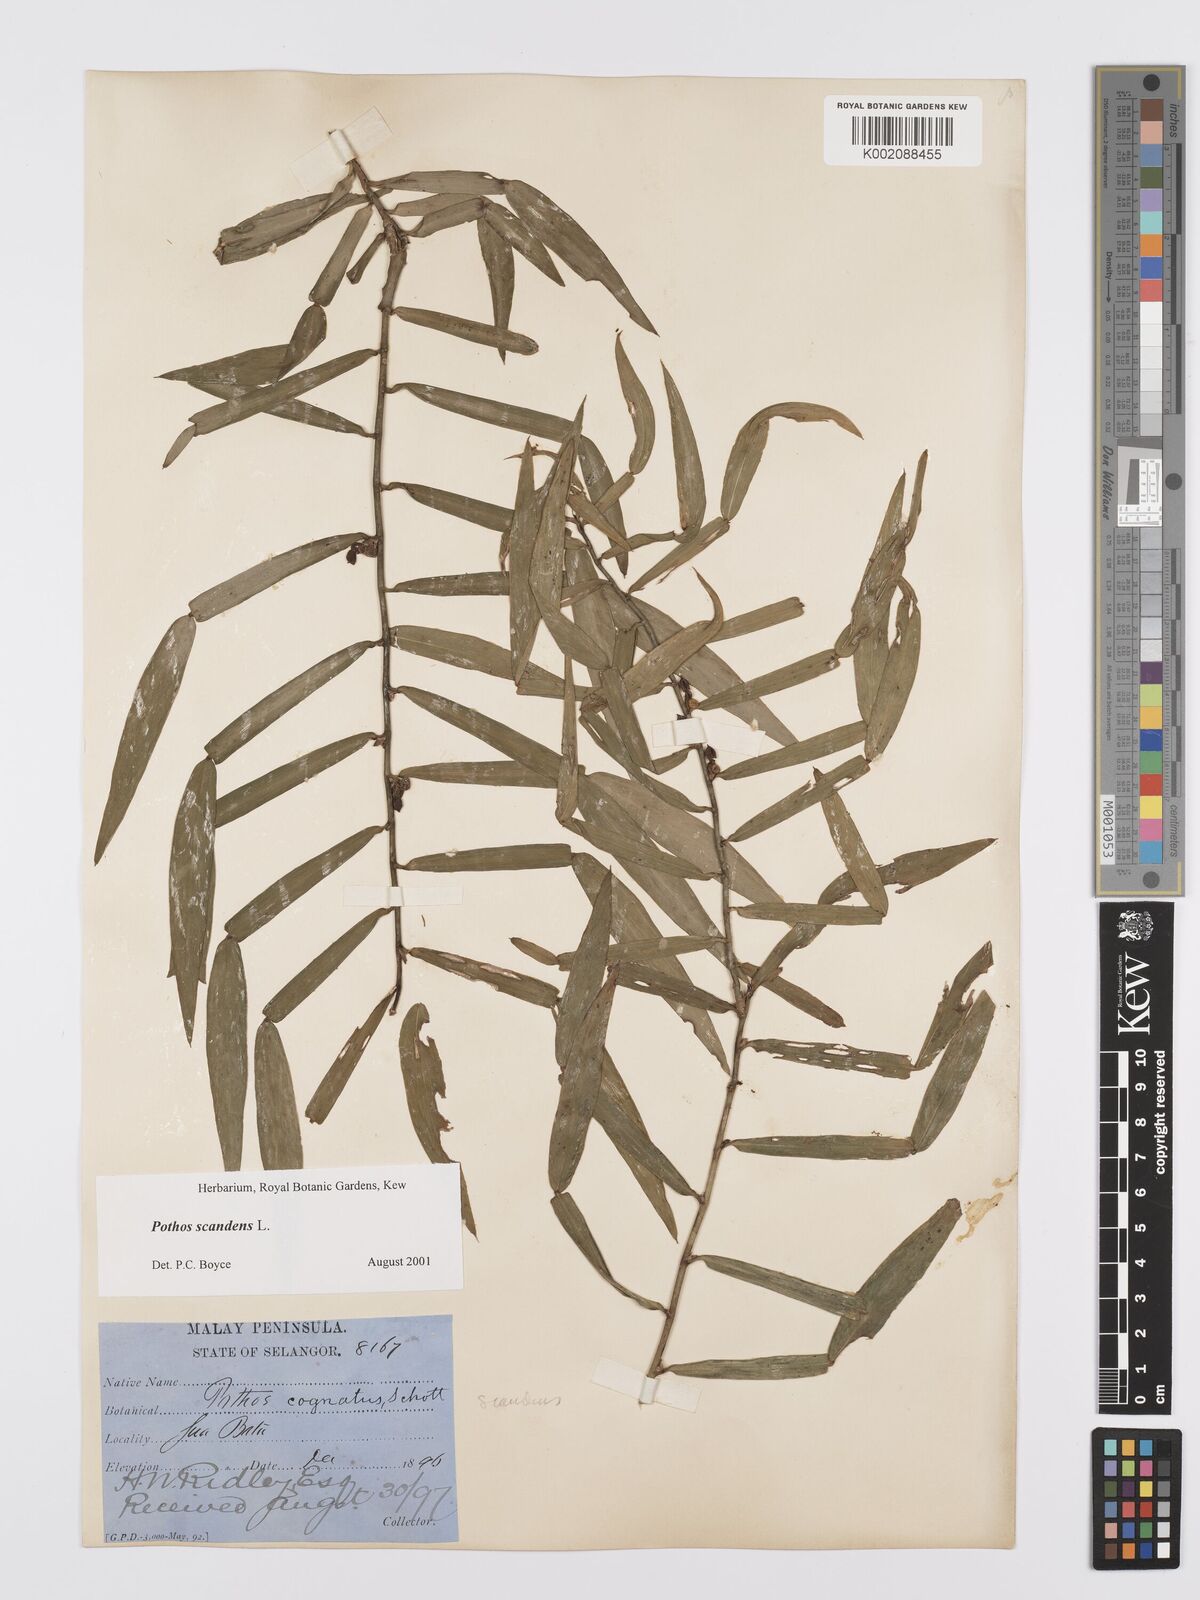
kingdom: Plantae
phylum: Tracheophyta
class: Liliopsida
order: Alismatales
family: Araceae
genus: Pothos
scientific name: Pothos scandens
